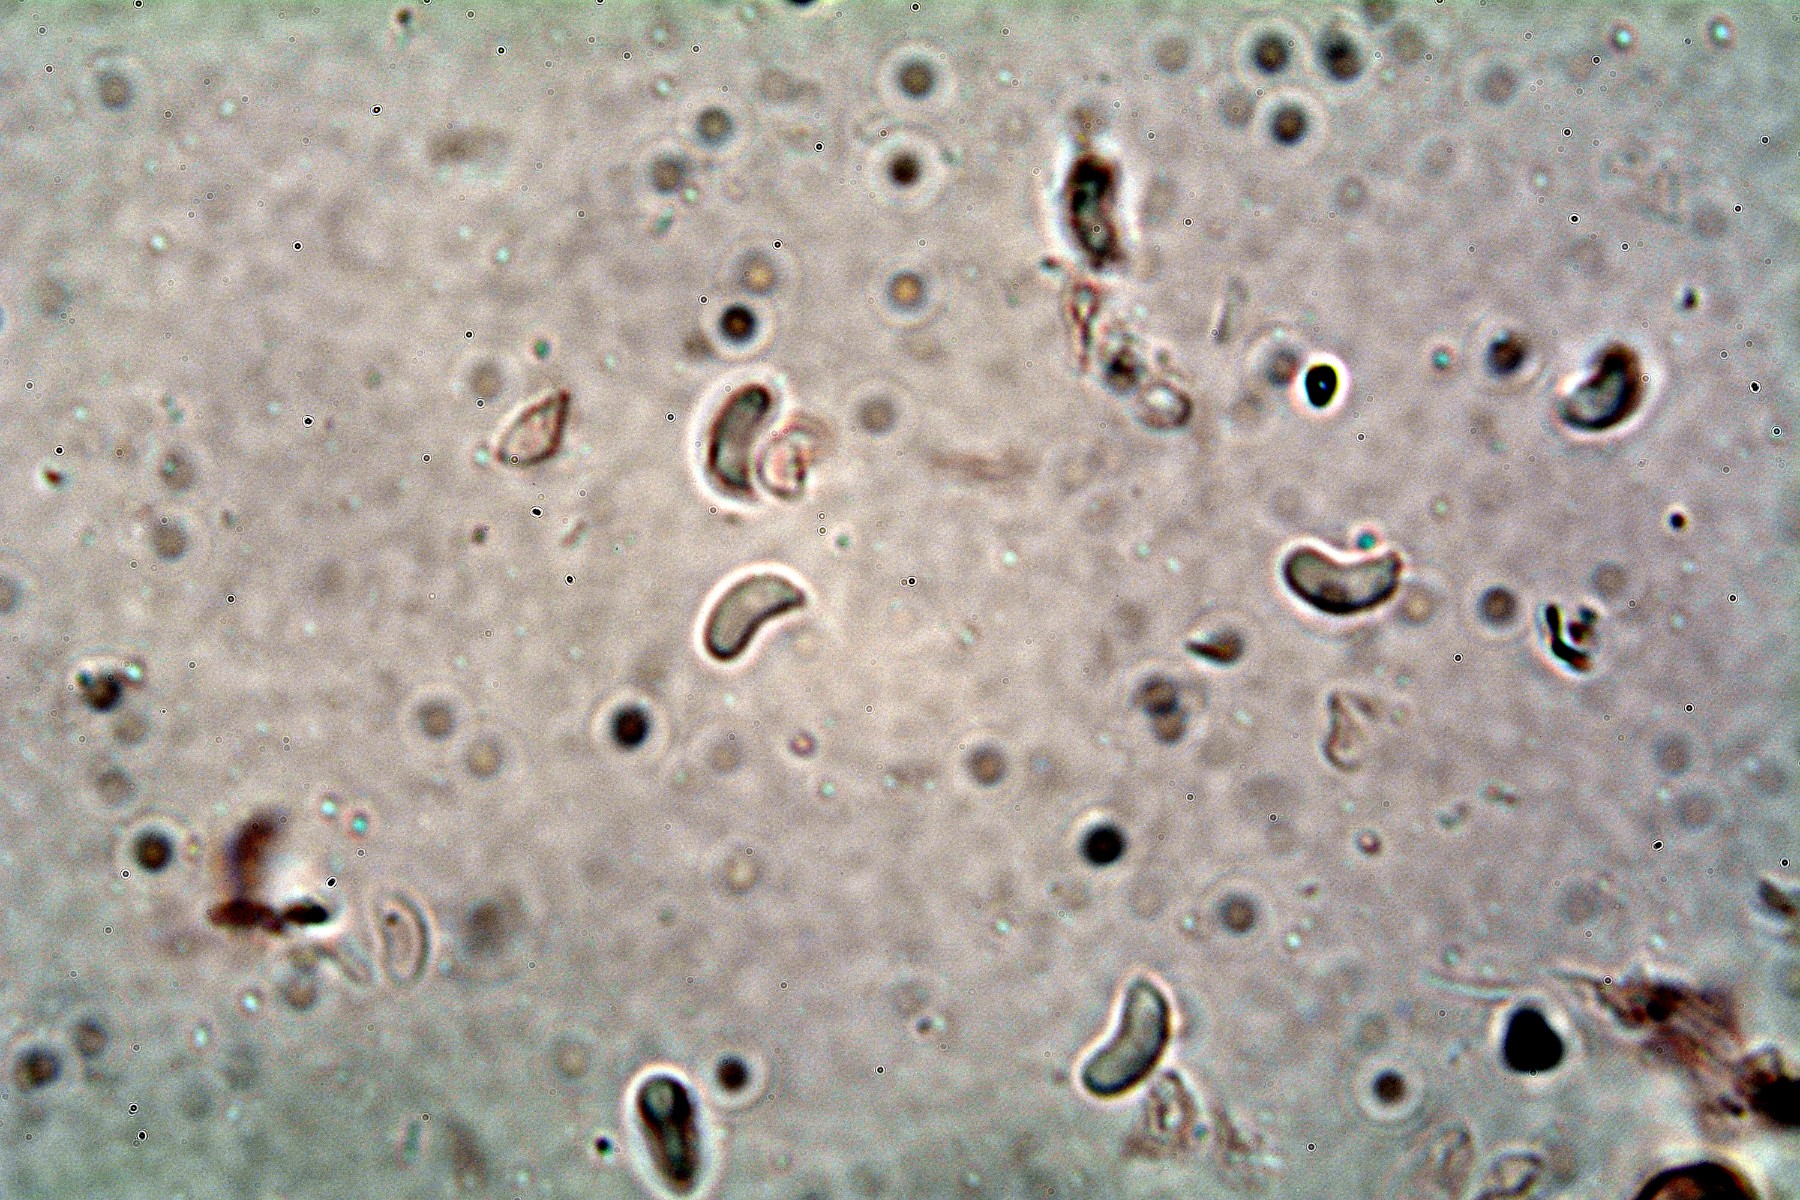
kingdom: Fungi
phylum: Basidiomycota
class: Agaricomycetes
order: Corticiales
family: Corticiaceae
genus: Mycobernardia
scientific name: Mycobernardia incrustans
